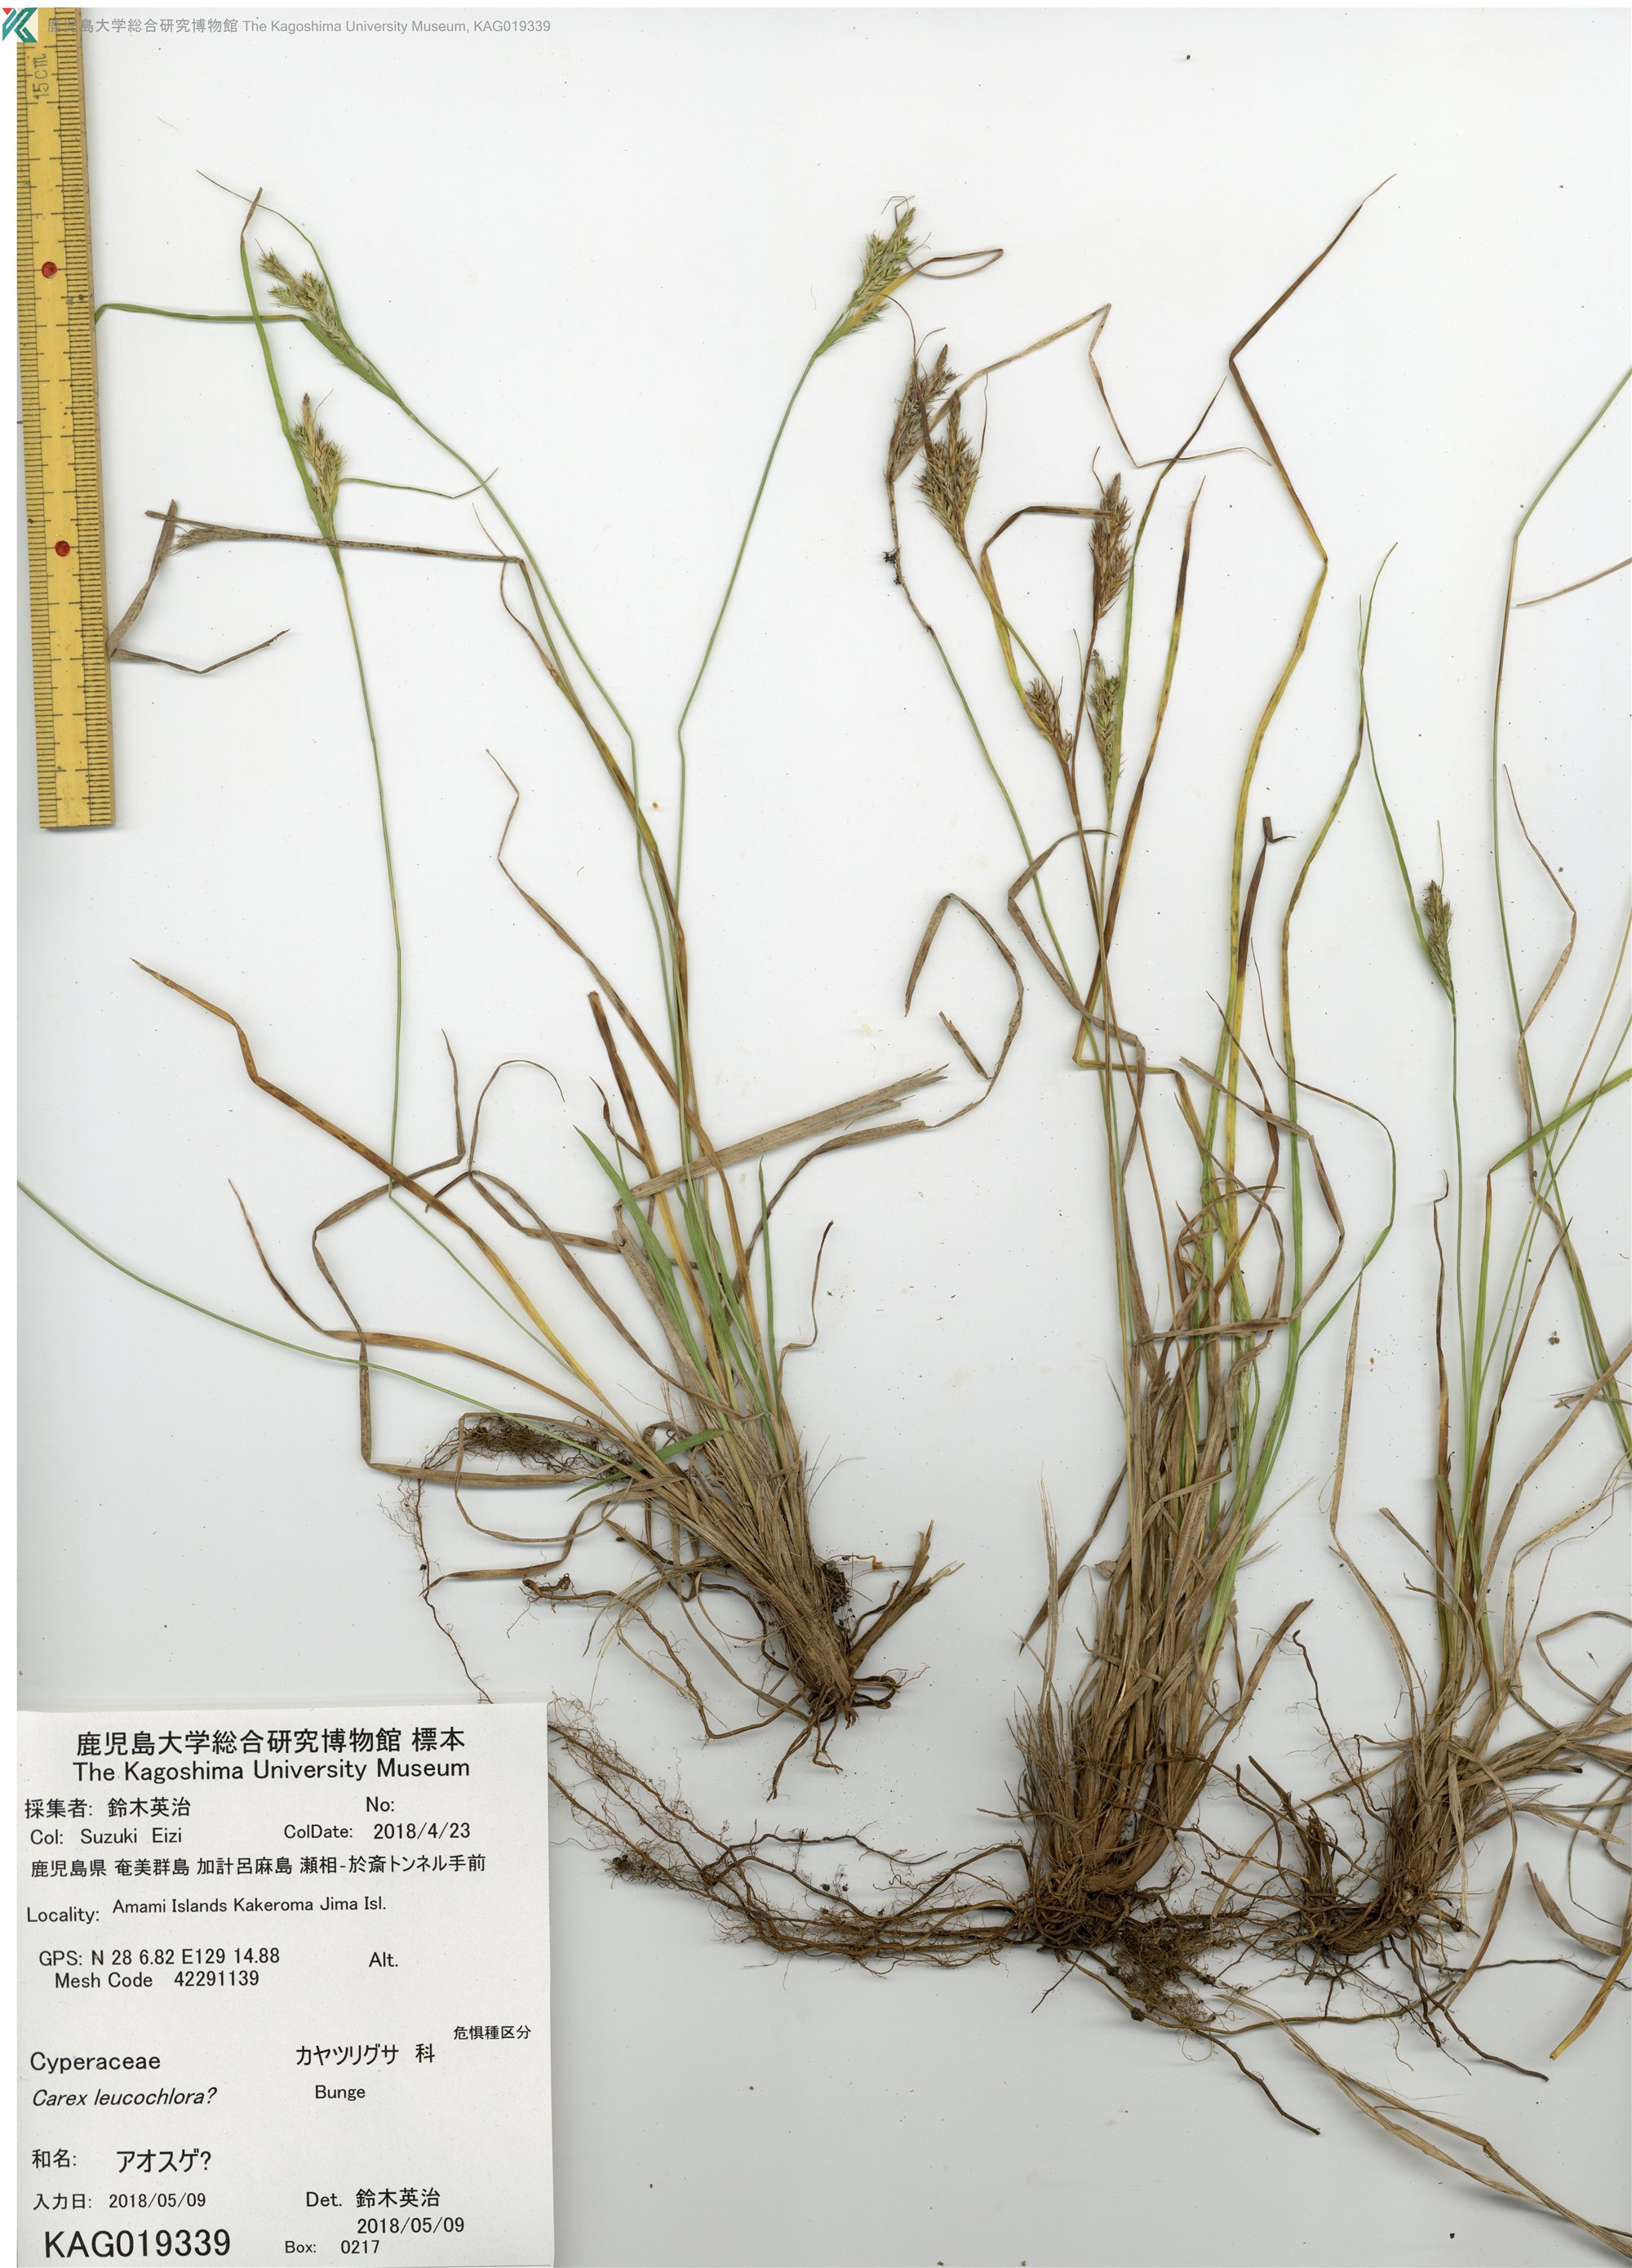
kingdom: Plantae
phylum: Tracheophyta
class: Liliopsida
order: Poales
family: Cyperaceae
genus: Carex
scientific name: Carex leucochlora
